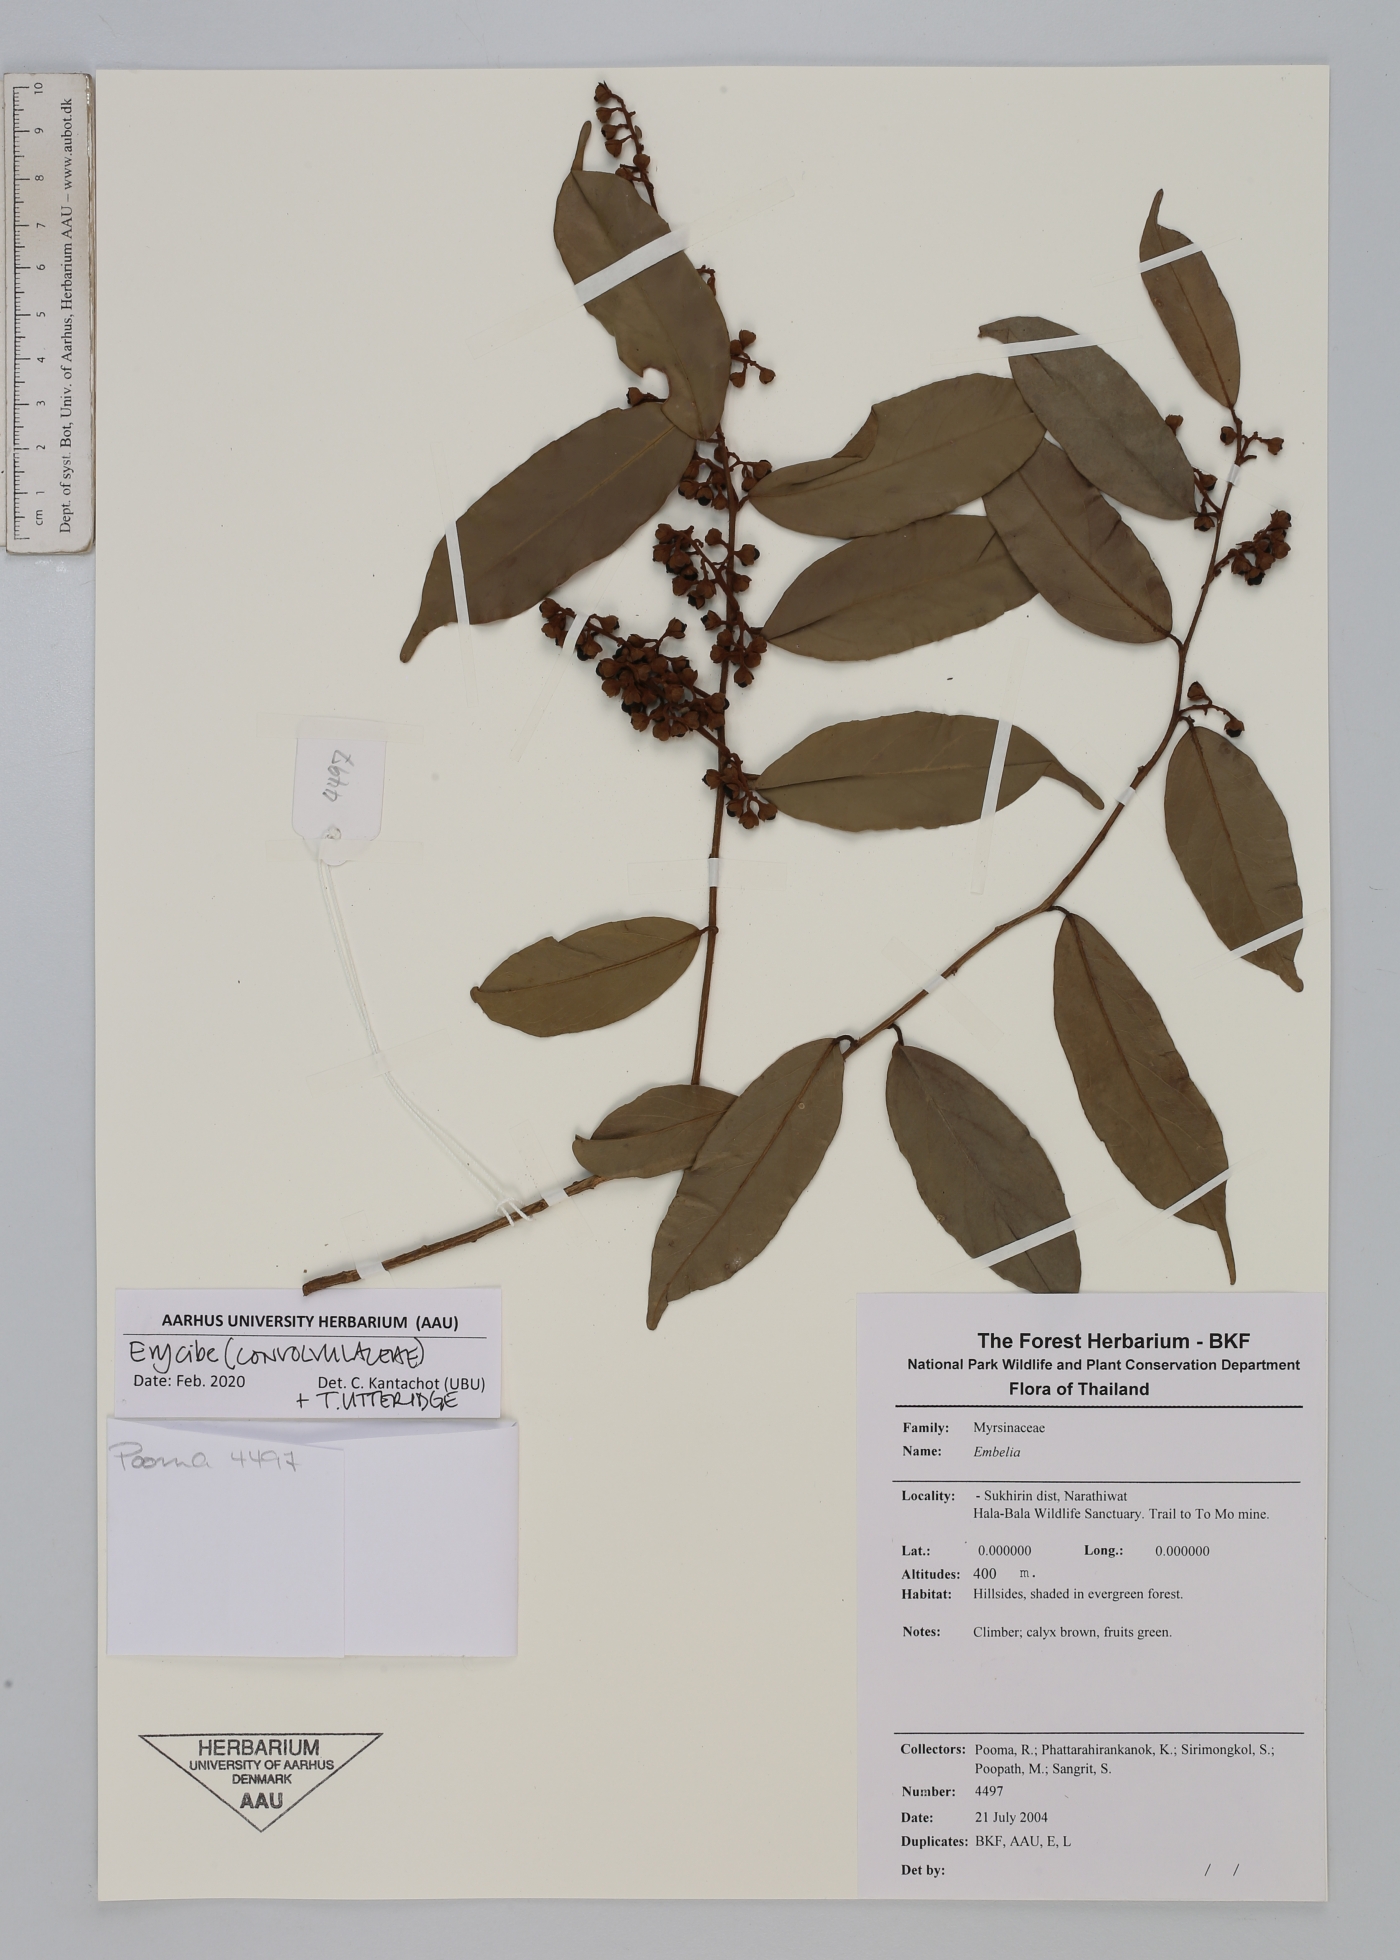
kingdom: Plantae
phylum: Tracheophyta
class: Magnoliopsida
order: Solanales
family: Convolvulaceae
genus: Erycibe
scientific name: Erycibe
